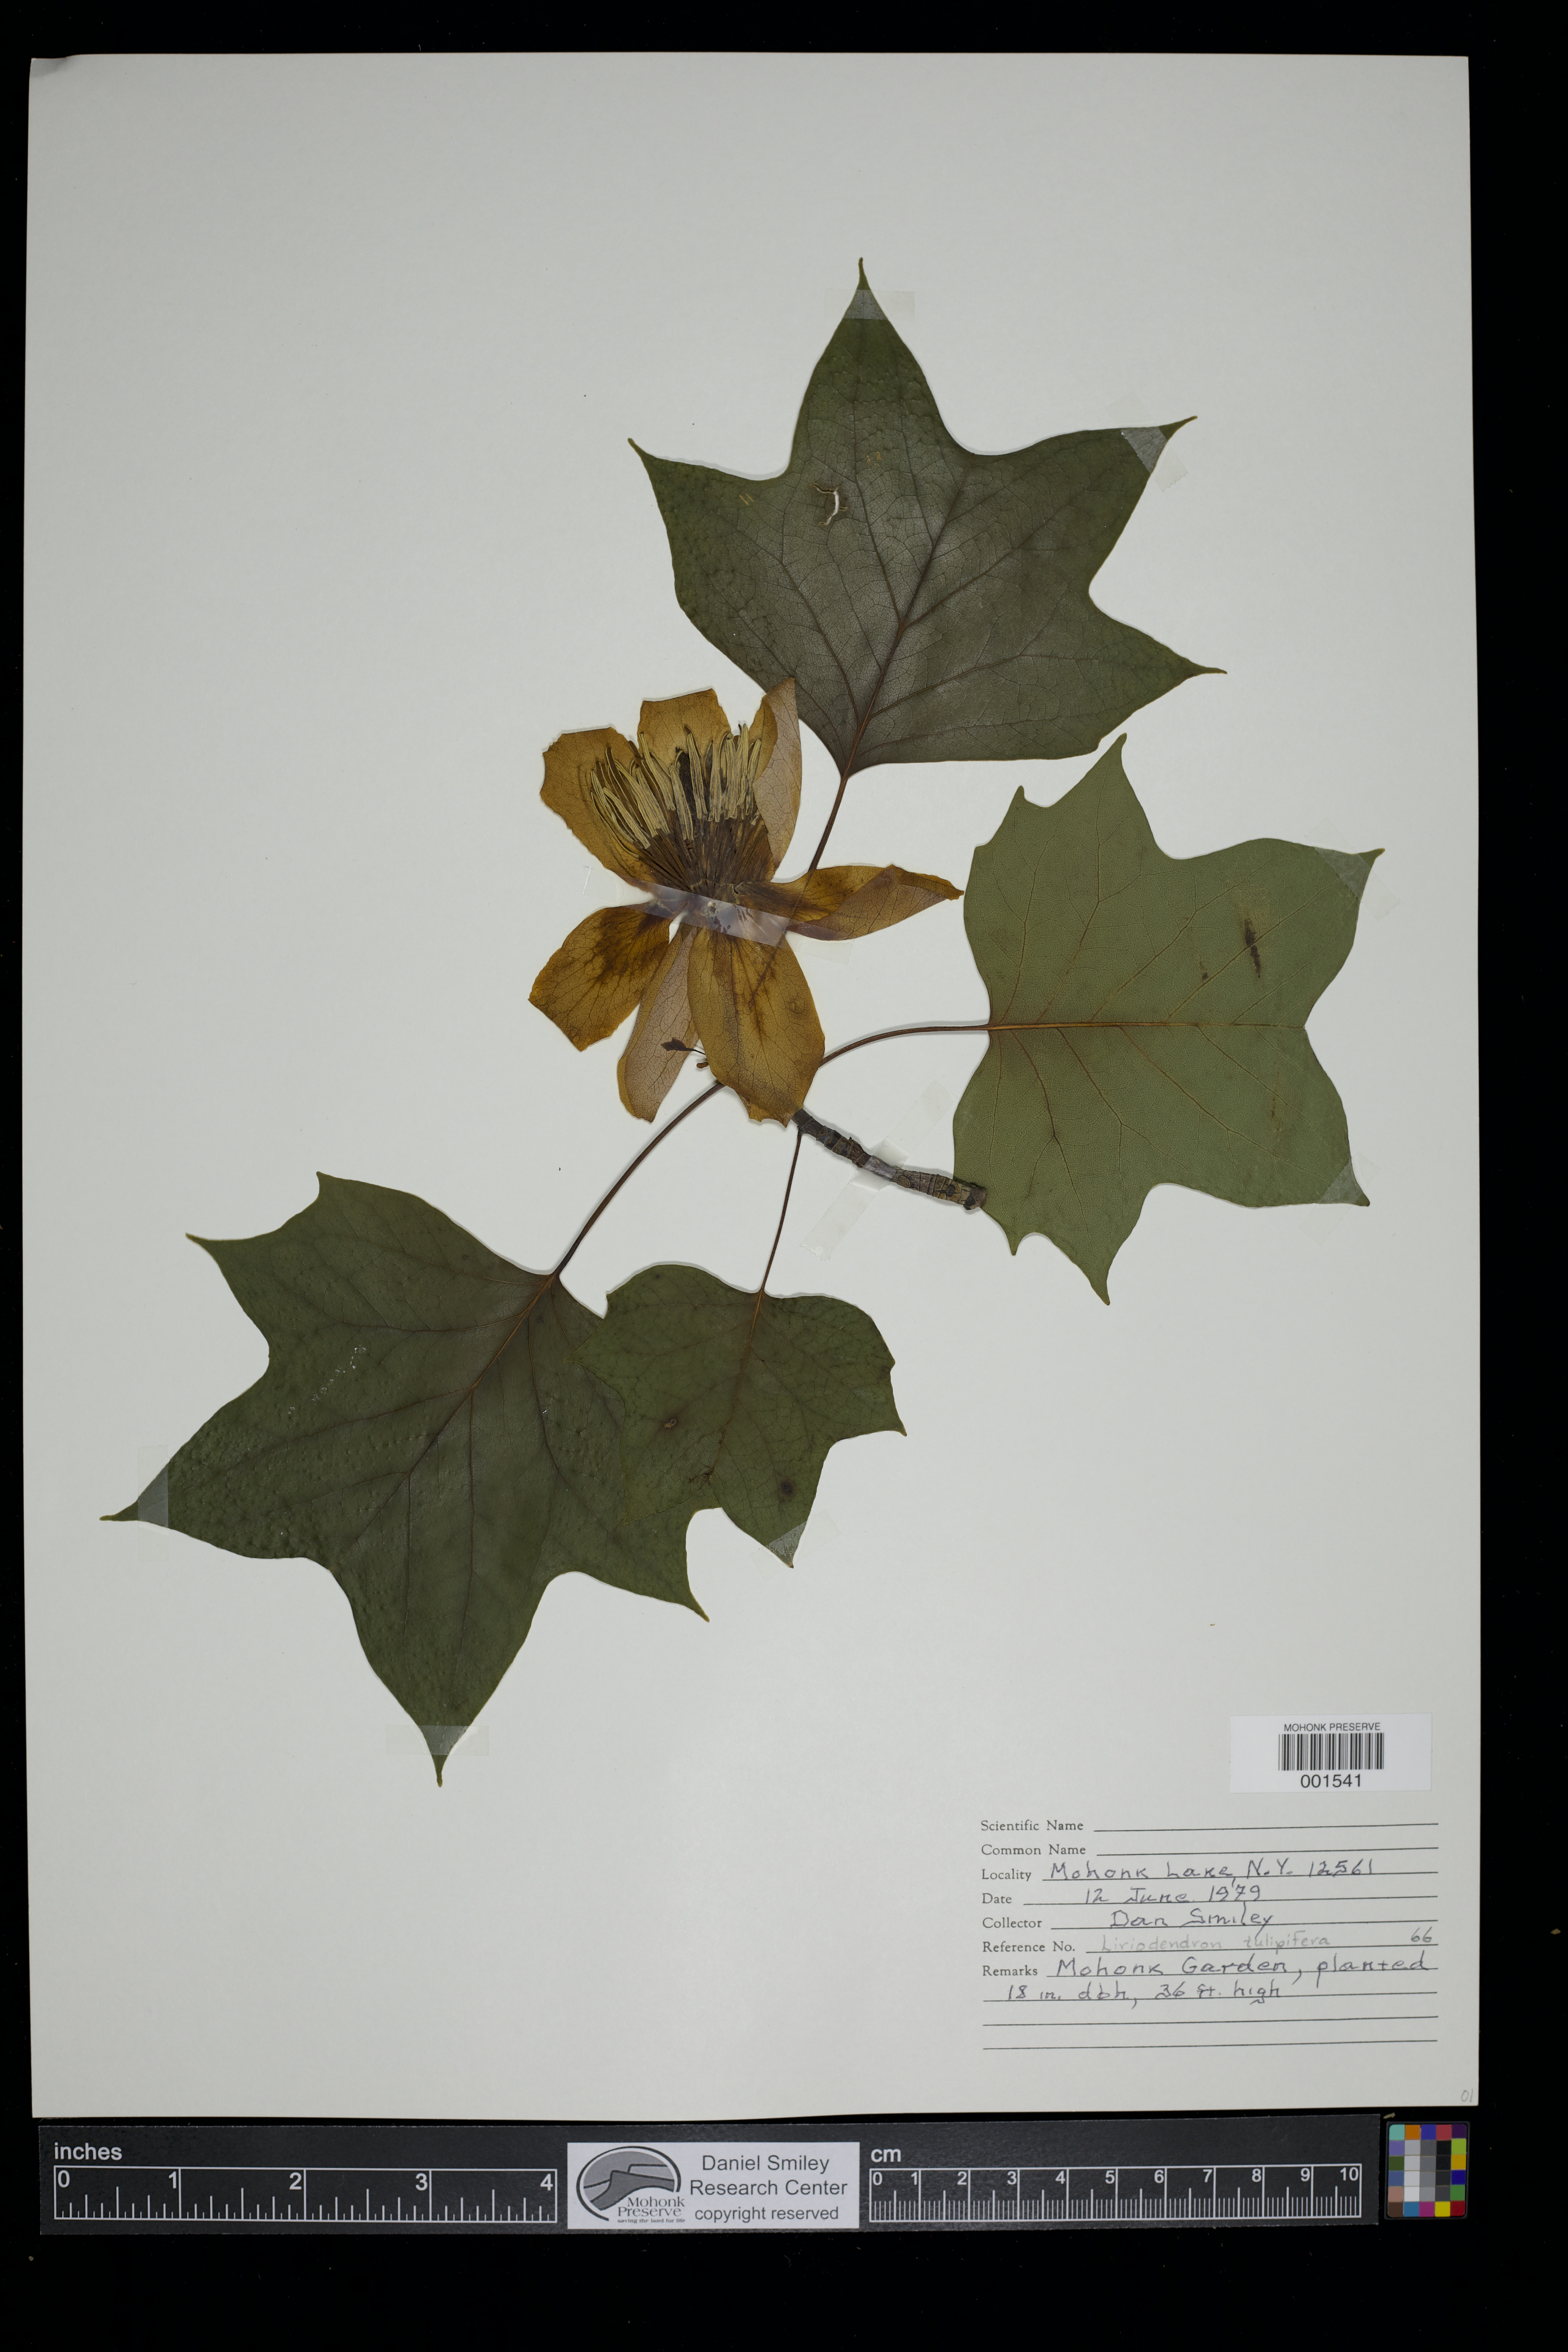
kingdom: Plantae
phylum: Tracheophyta
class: Magnoliopsida
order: Magnoliales
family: Magnoliaceae
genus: Liriodendron
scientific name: Liriodendron tulipifera
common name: Tulip tree
